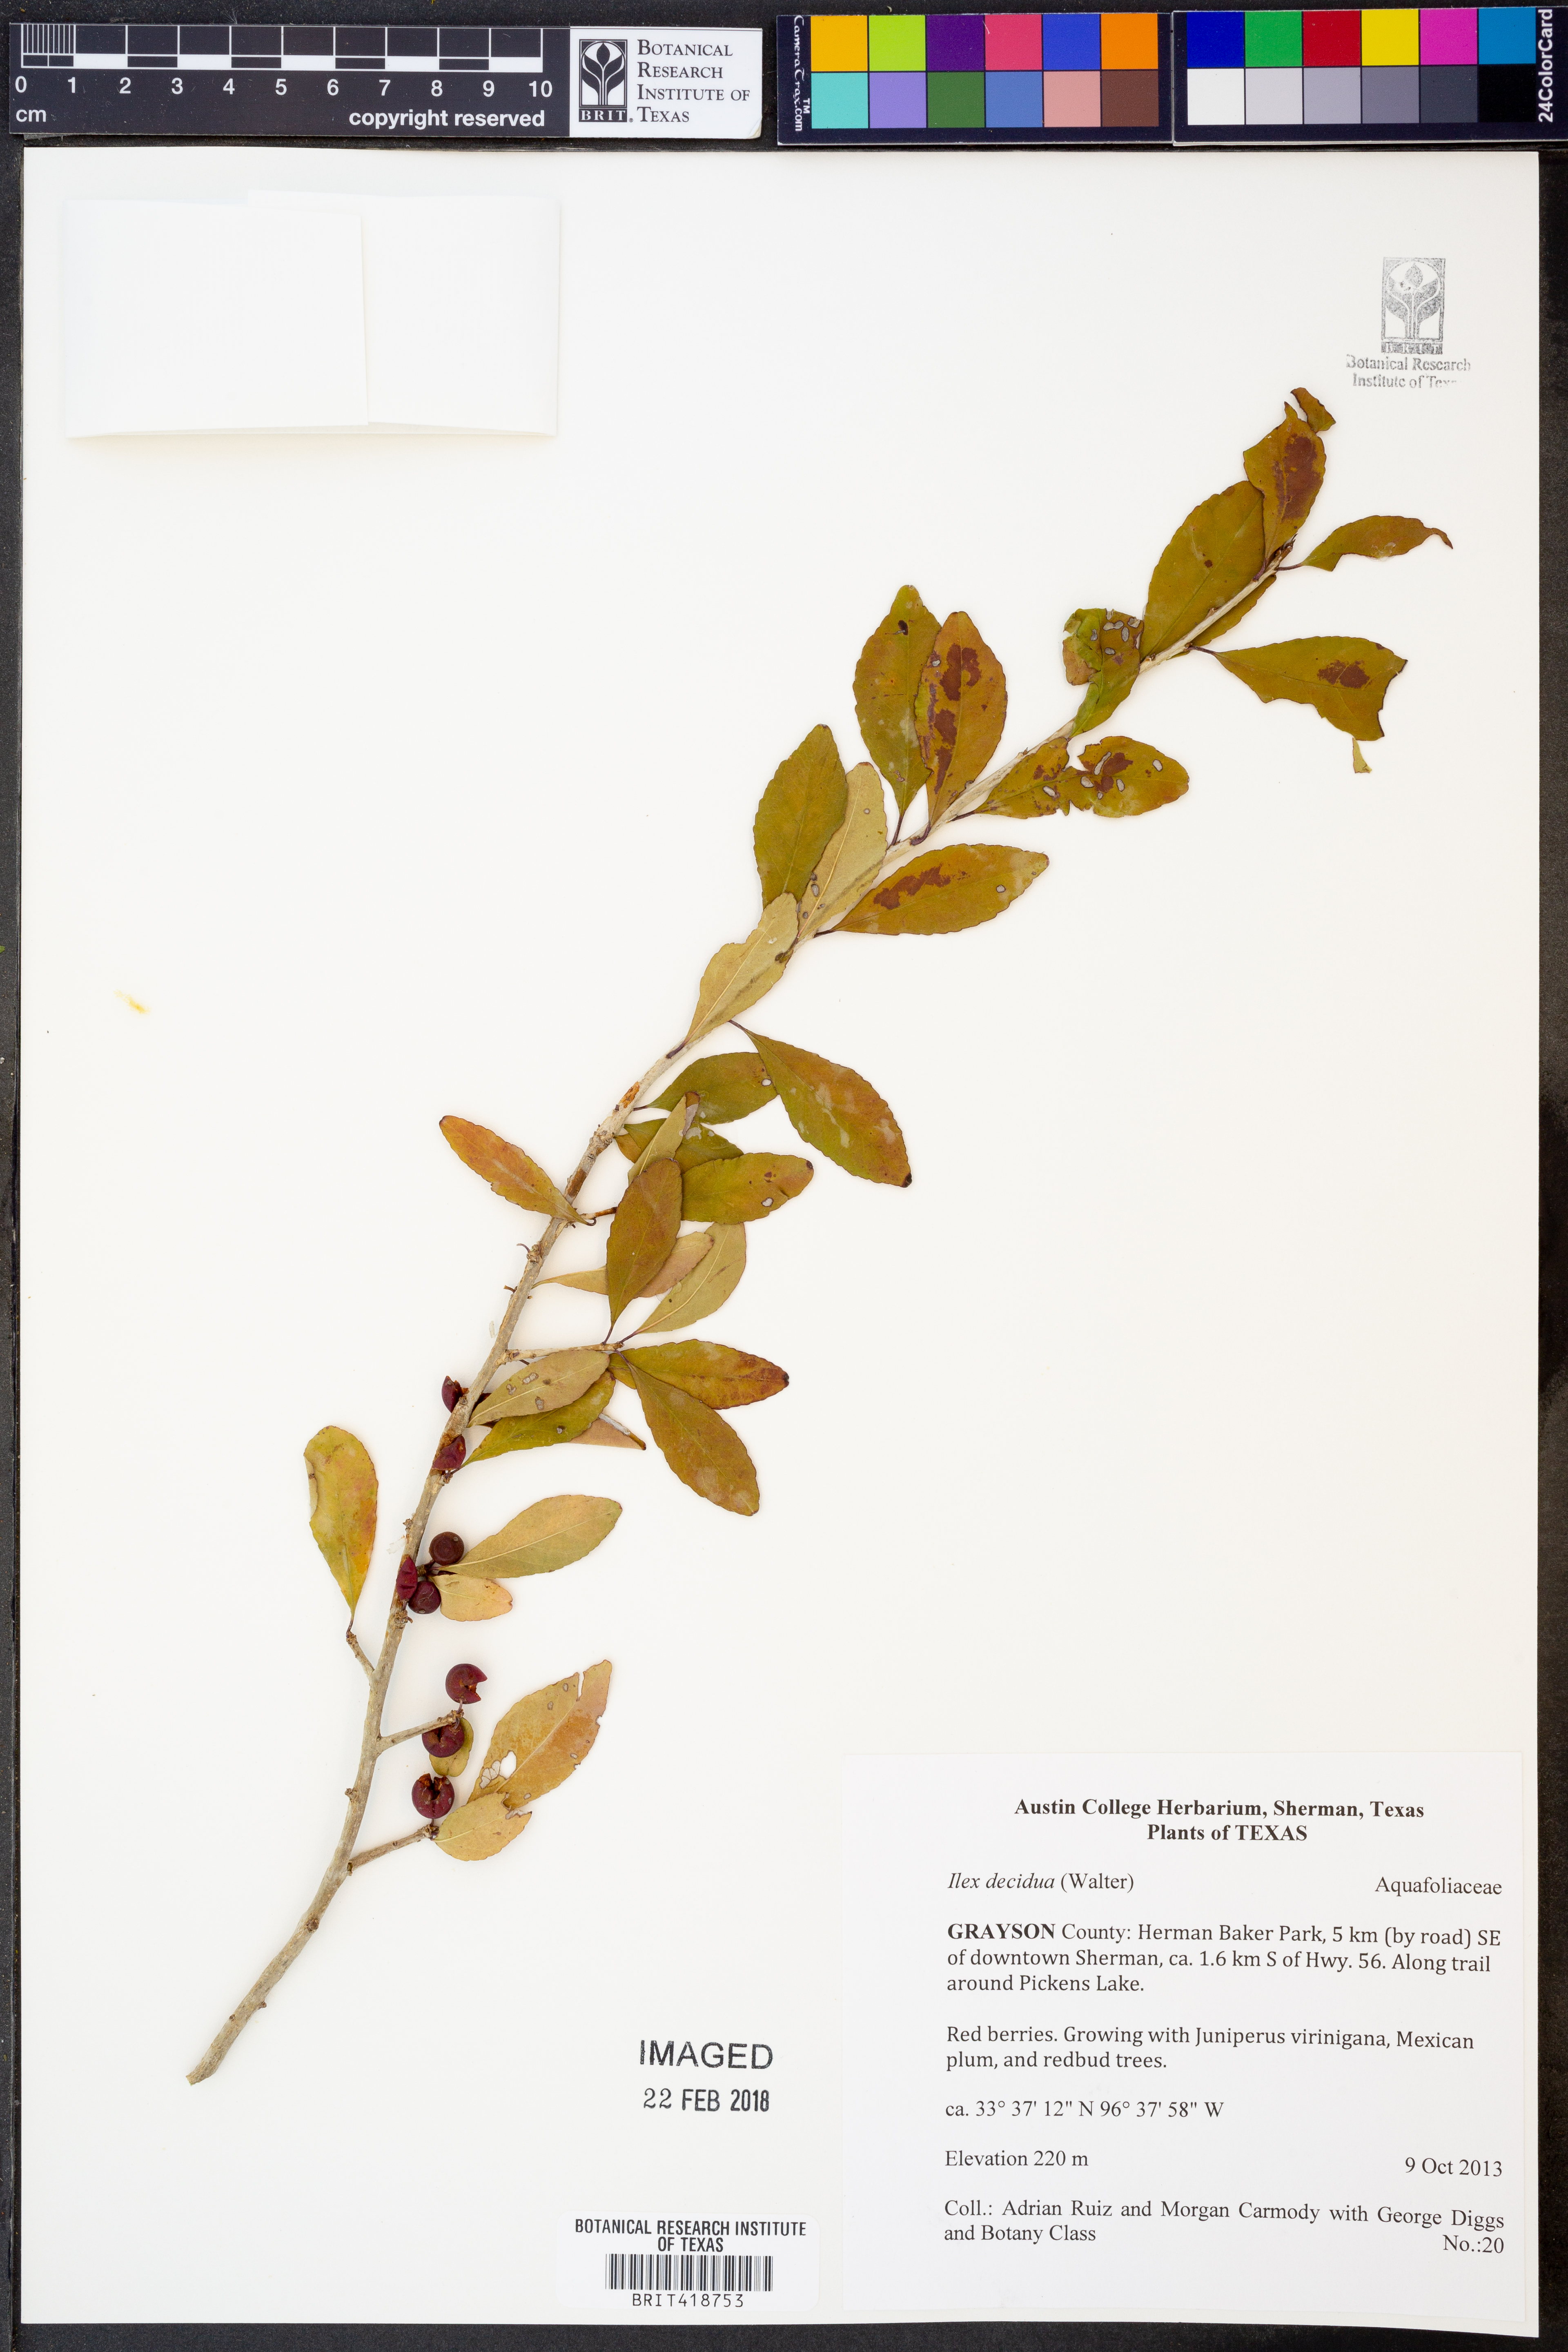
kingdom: Plantae
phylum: Tracheophyta
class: Magnoliopsida
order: Aquifoliales
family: Aquifoliaceae
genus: Ilex
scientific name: Ilex decidua
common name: Possum-haw
